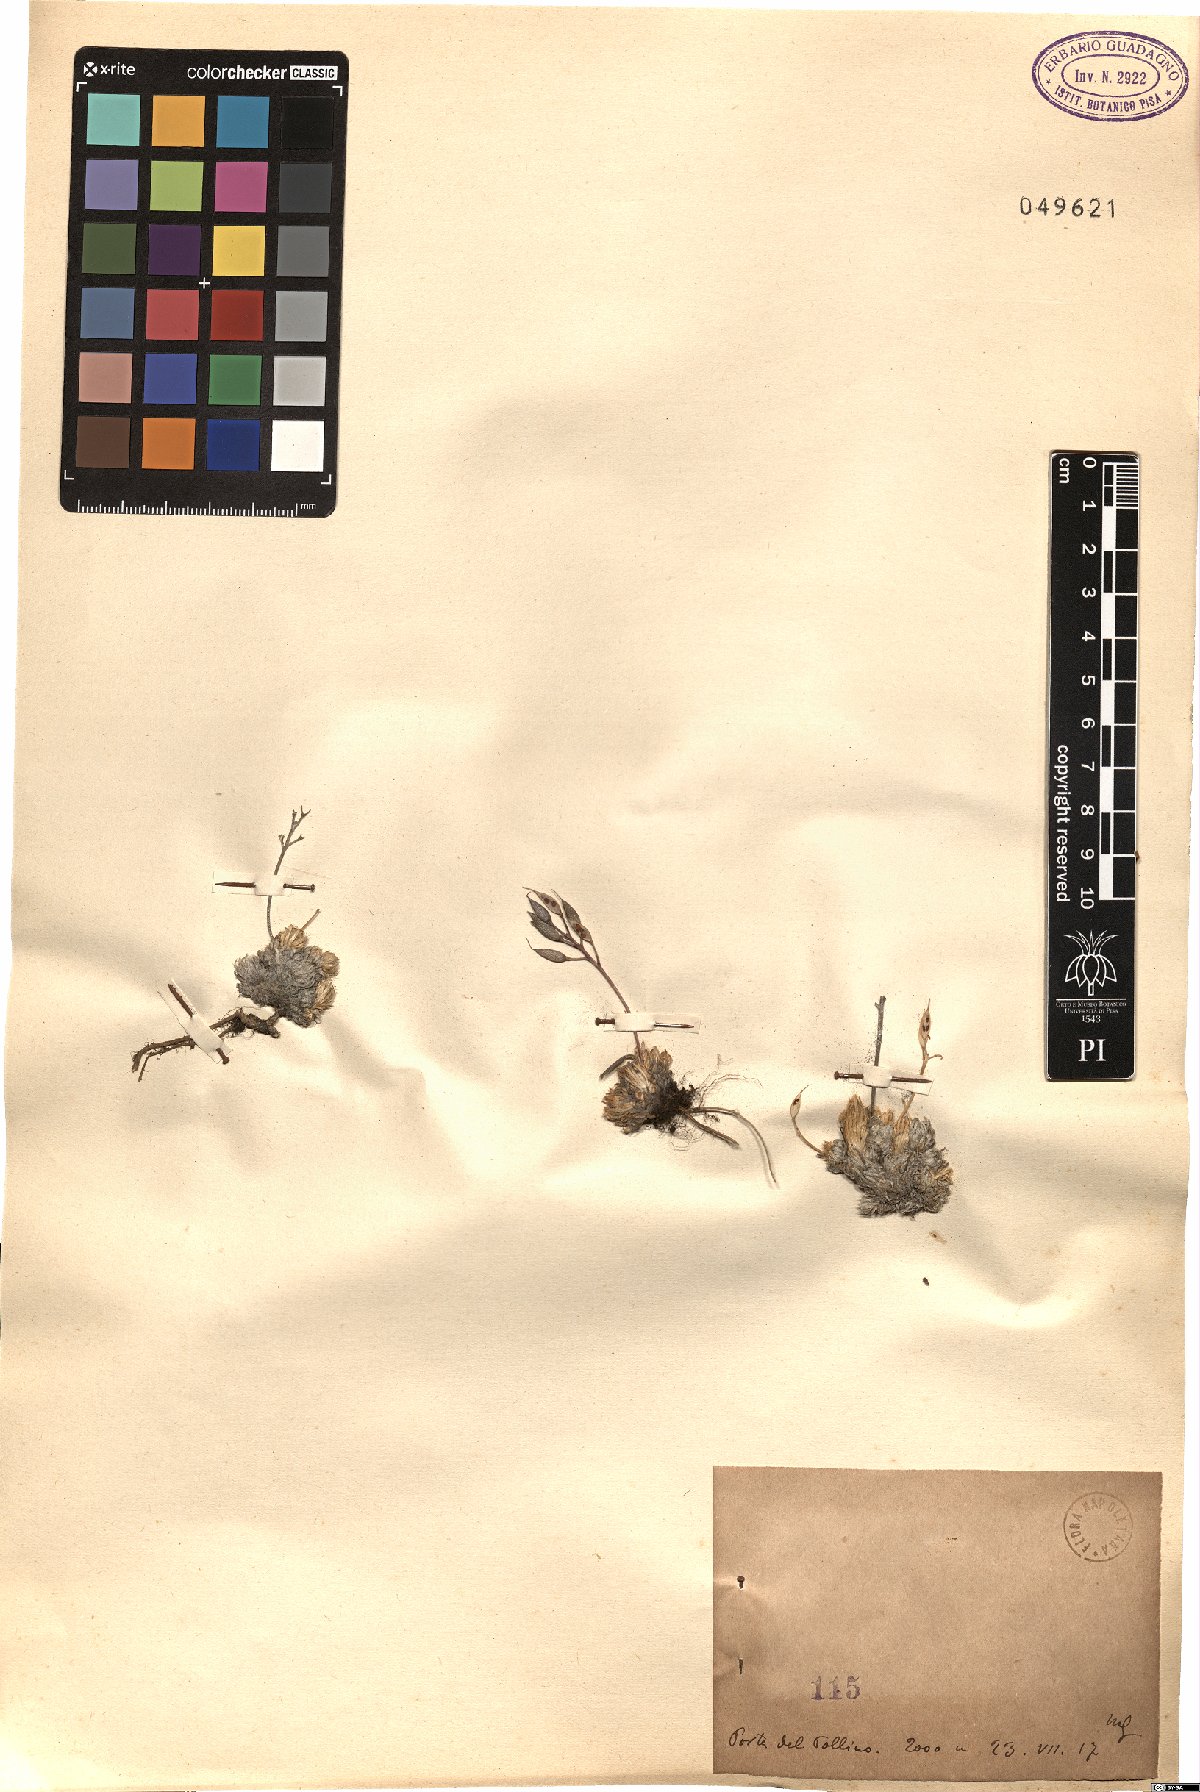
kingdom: Plantae
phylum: Tracheophyta
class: Magnoliopsida
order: Brassicales
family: Brassicaceae
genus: Draba
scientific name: Draba
